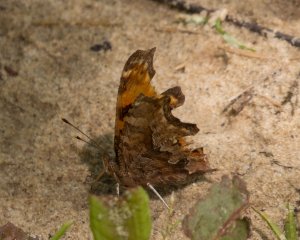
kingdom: Animalia
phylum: Arthropoda
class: Insecta
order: Lepidoptera
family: Nymphalidae
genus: Polygonia
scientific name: Polygonia comma
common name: Eastern Comma
